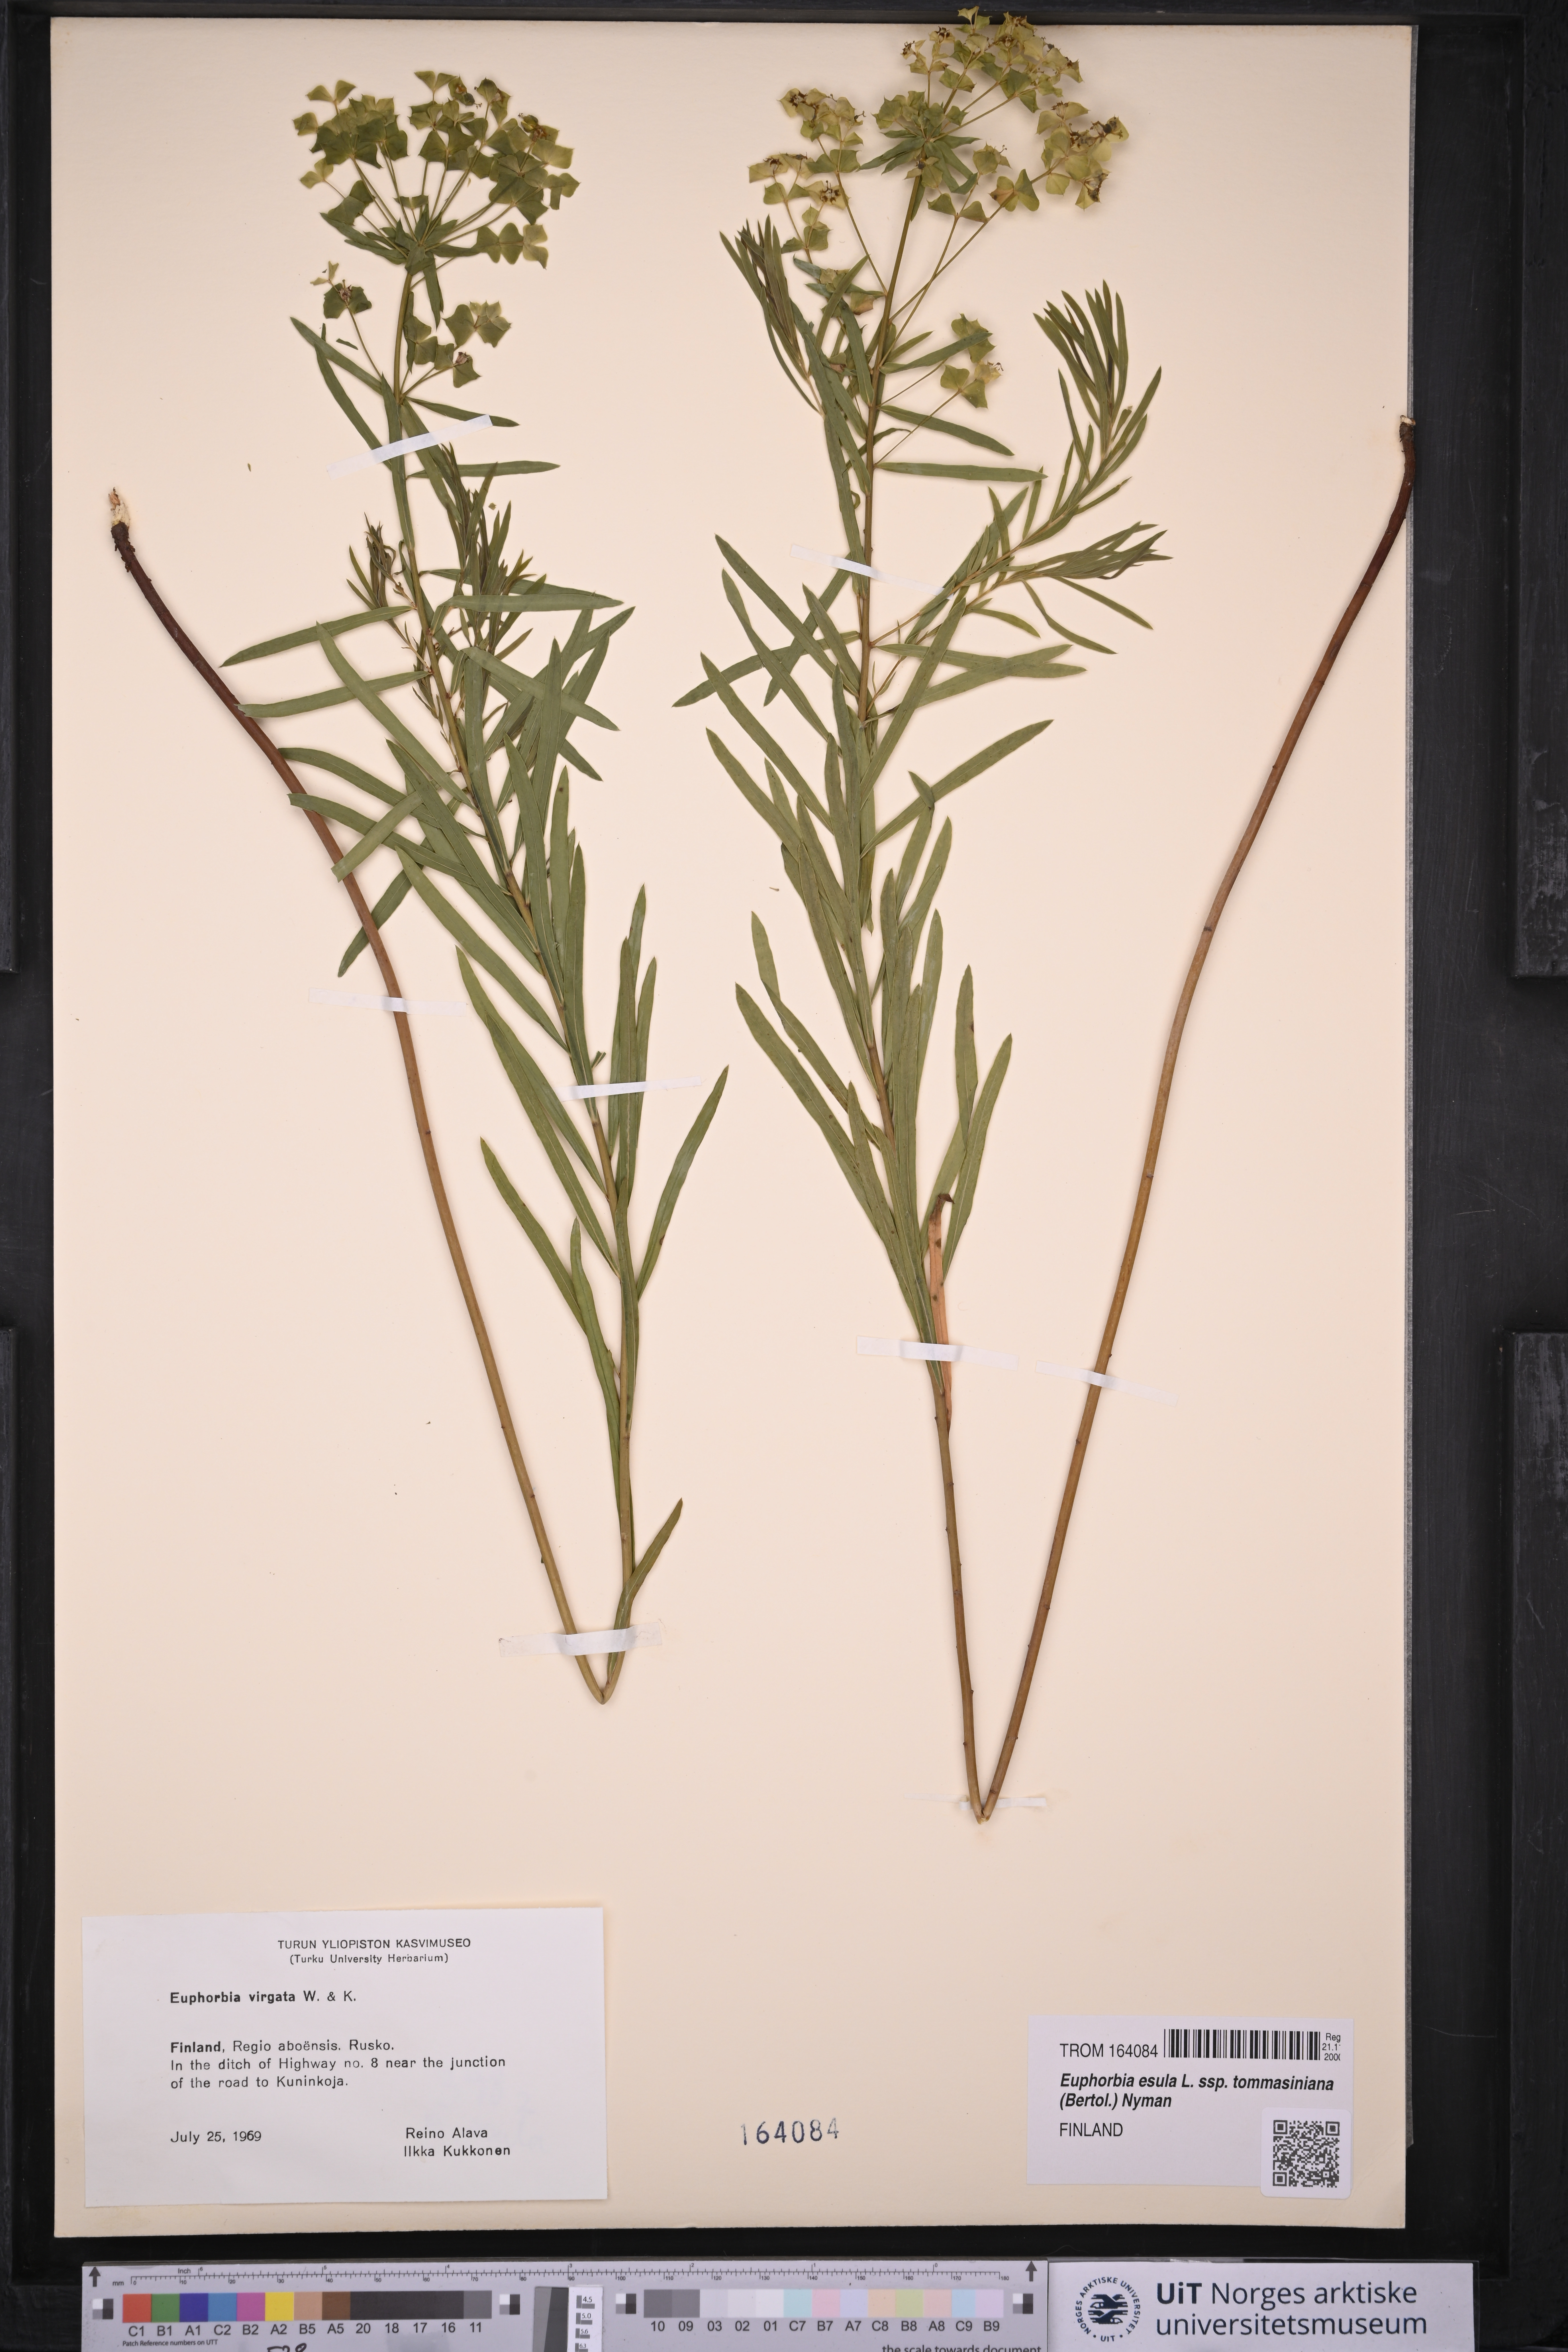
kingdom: Plantae
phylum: Tracheophyta
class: Magnoliopsida
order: Malpighiales
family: Euphorbiaceae
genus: Euphorbia
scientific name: Euphorbia tommasiniana
